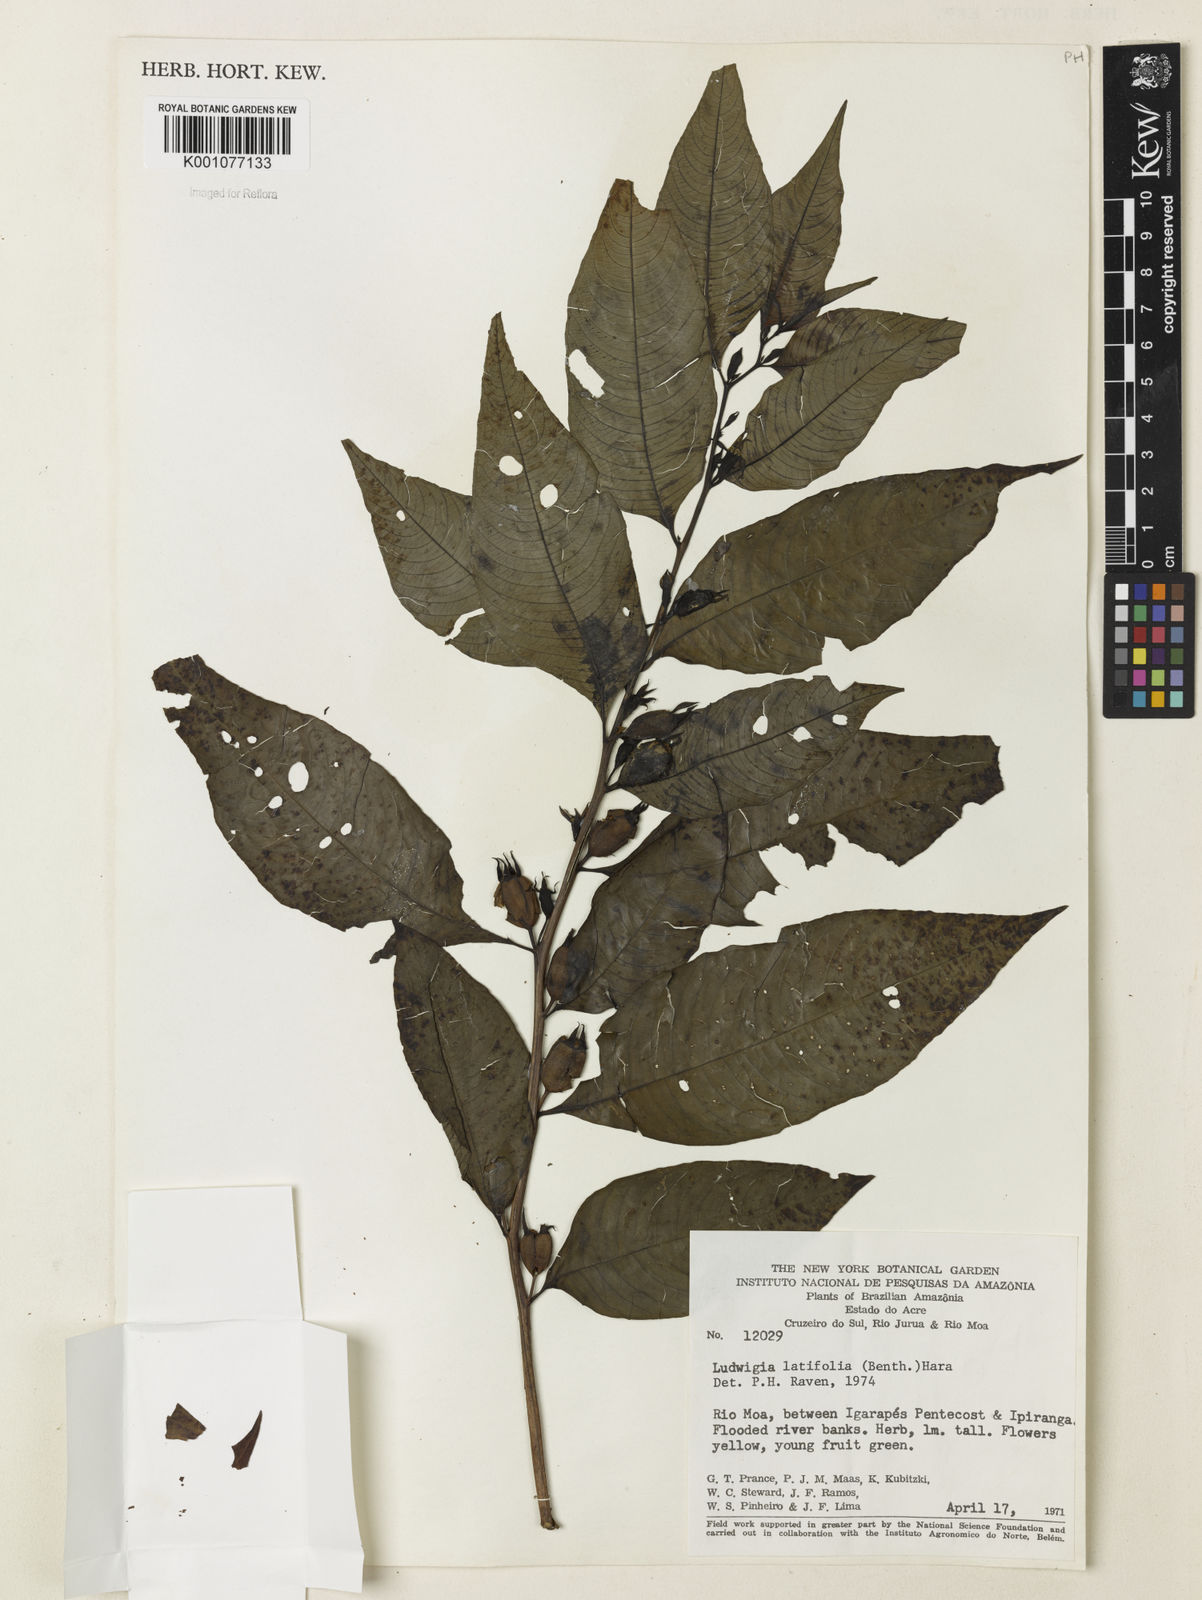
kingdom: Plantae
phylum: Tracheophyta
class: Magnoliopsida
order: Myrtales
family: Onagraceae
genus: Ludwigia
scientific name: Ludwigia latifolia
